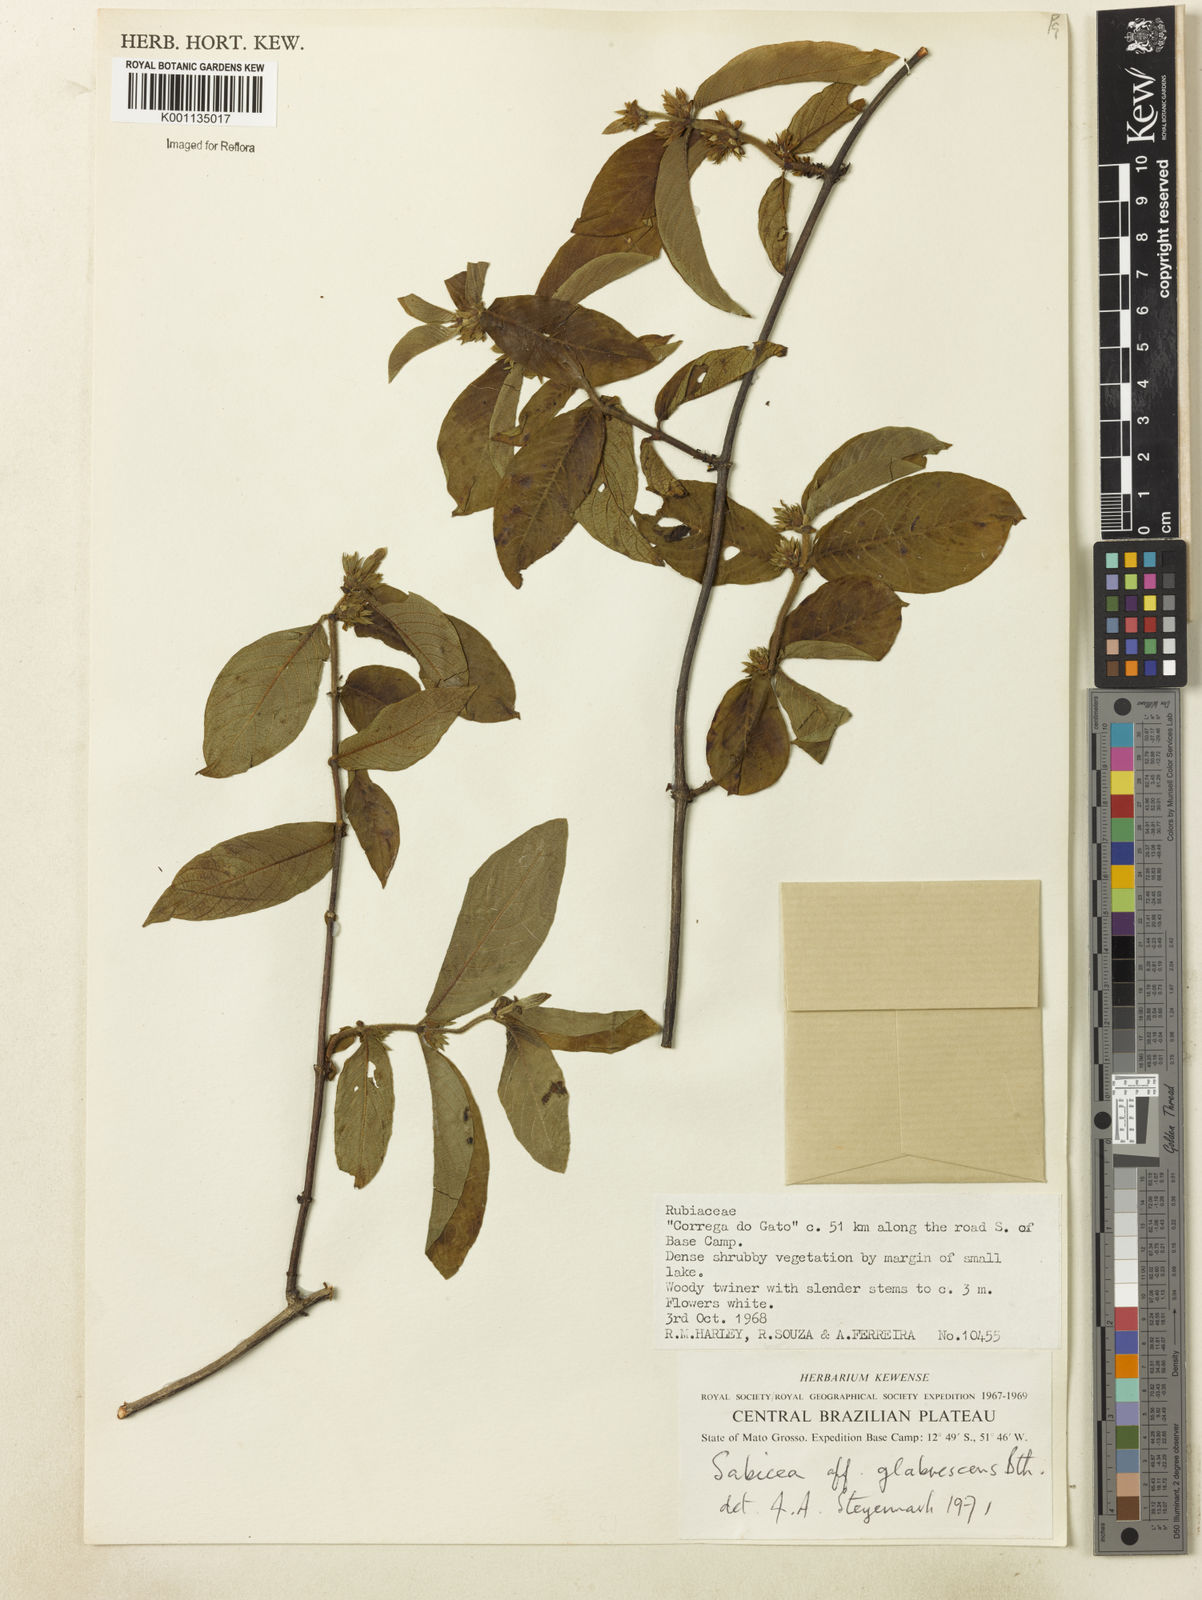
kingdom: Plantae
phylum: Tracheophyta
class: Magnoliopsida
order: Gentianales
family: Rubiaceae
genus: Sabicea
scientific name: Sabicea glabrescens
